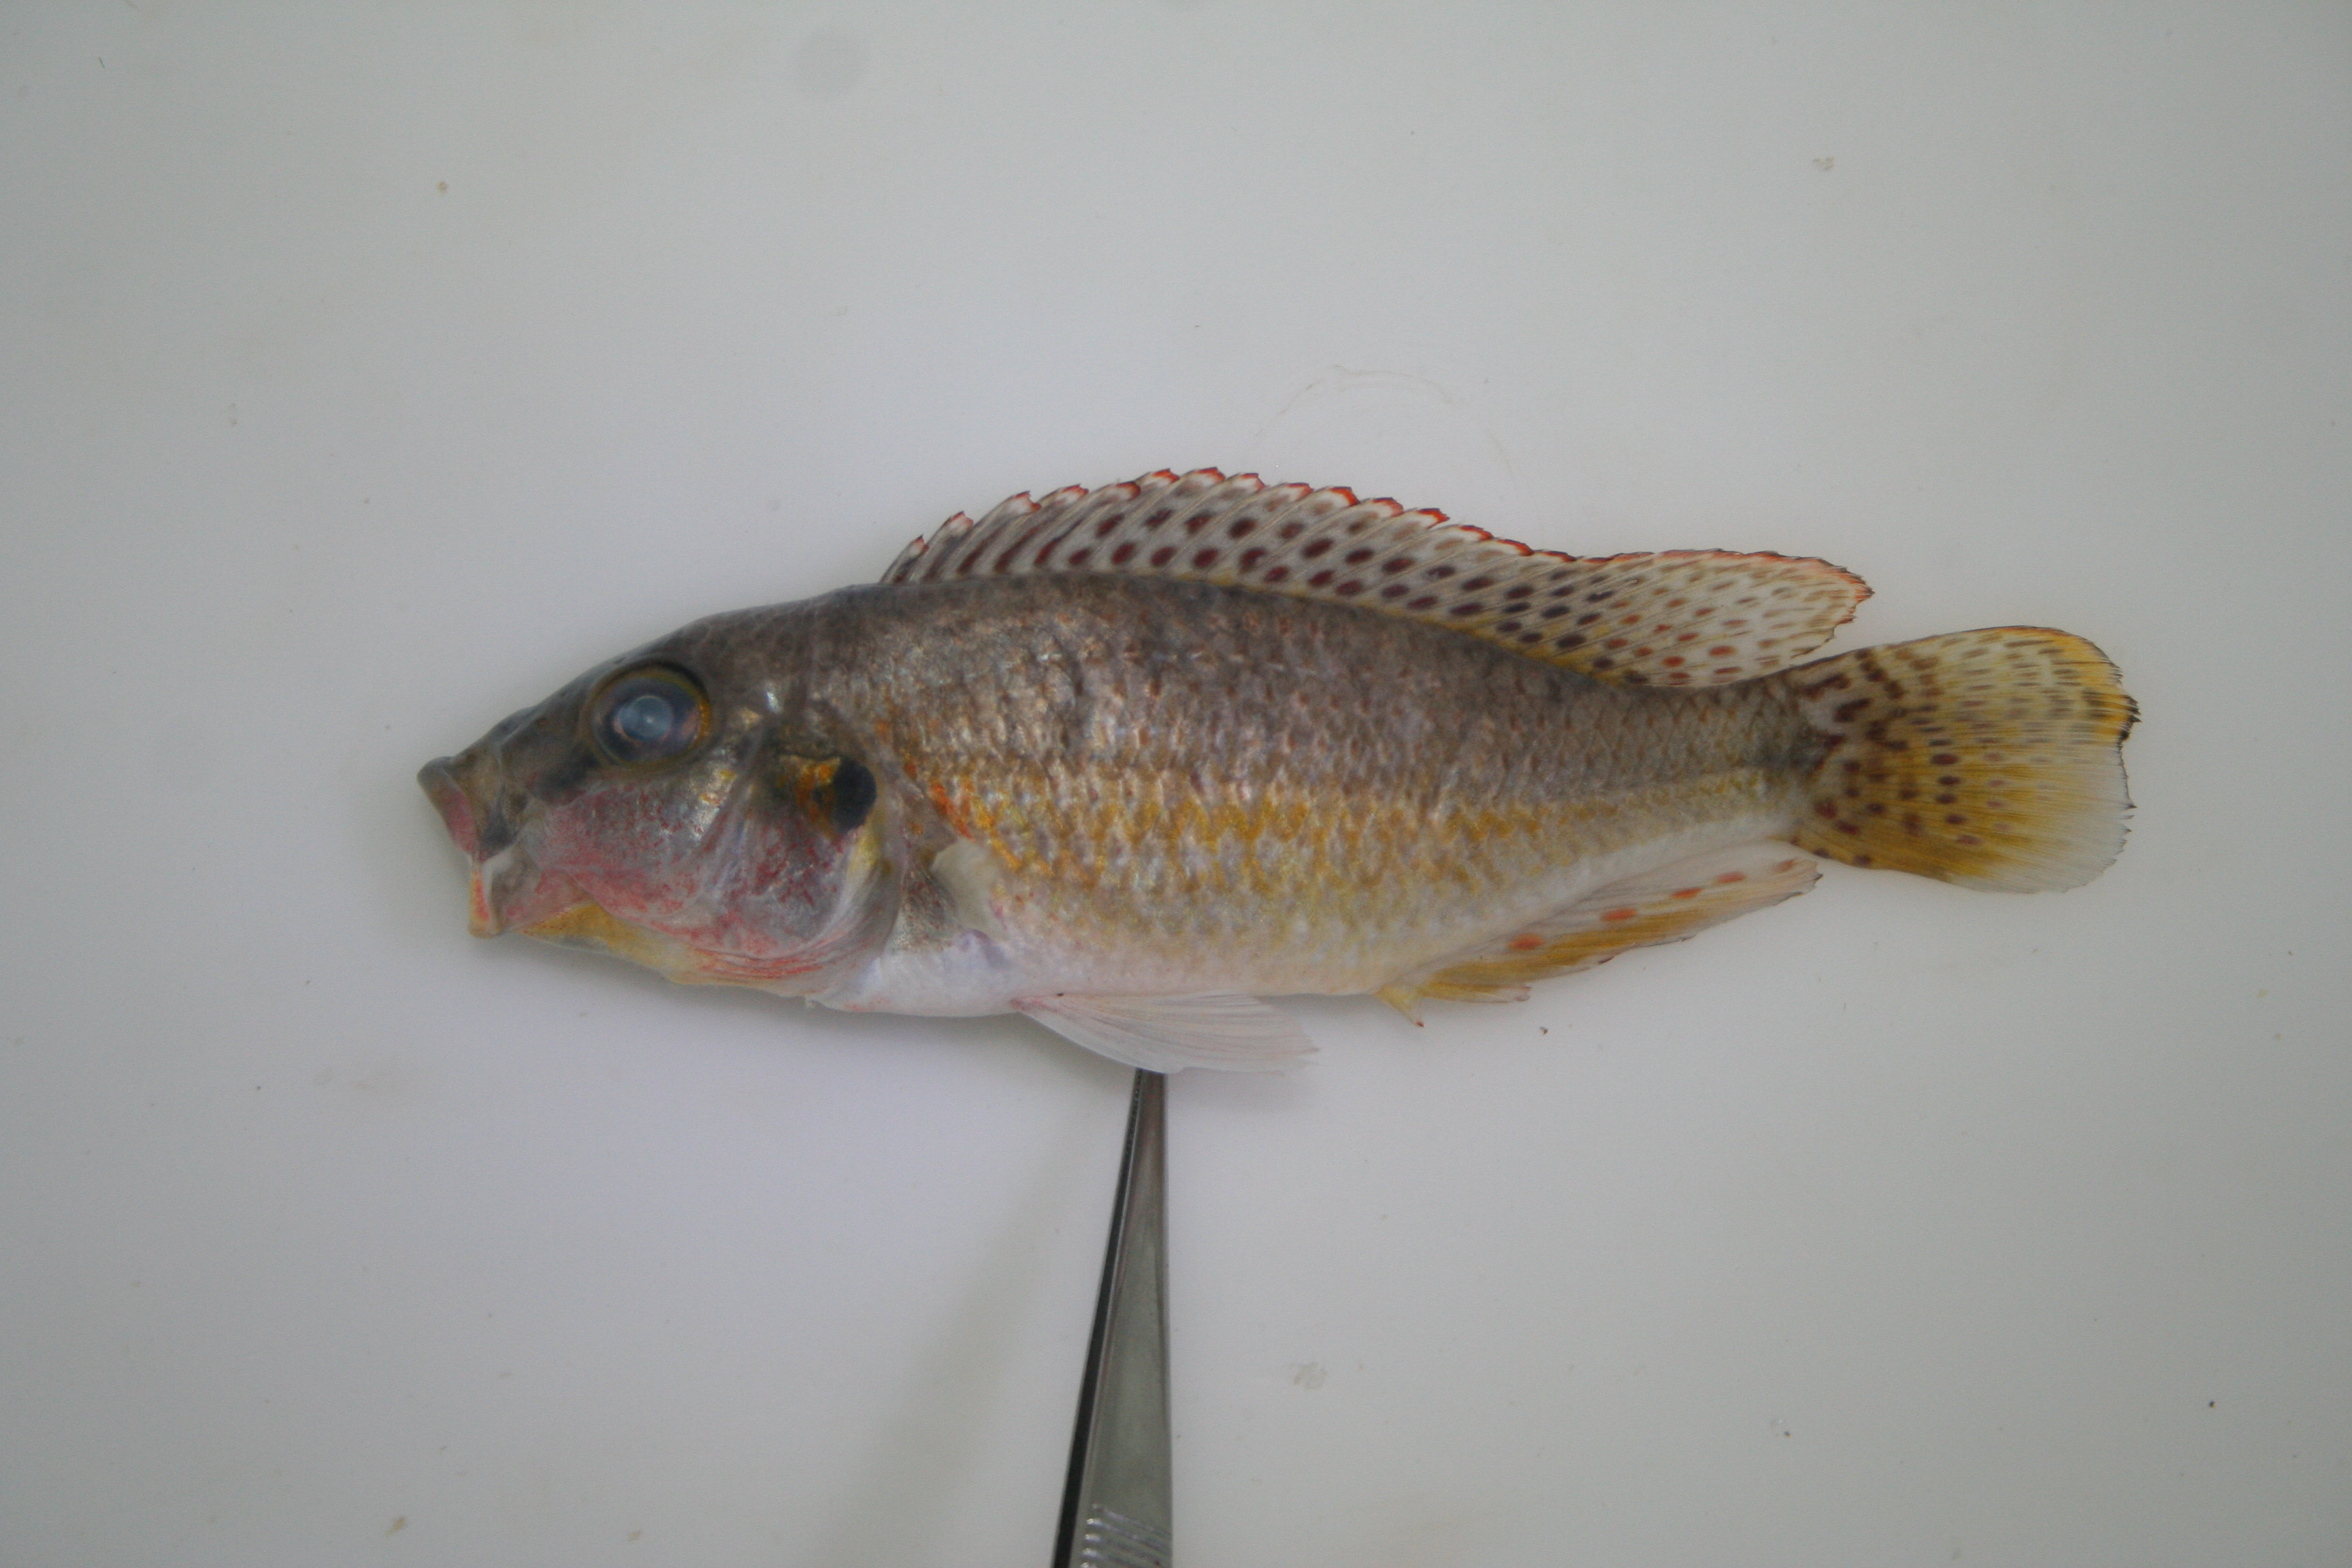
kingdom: Animalia
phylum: Chordata
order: Perciformes
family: Cichlidae
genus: Pharyngochromis
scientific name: Pharyngochromis
